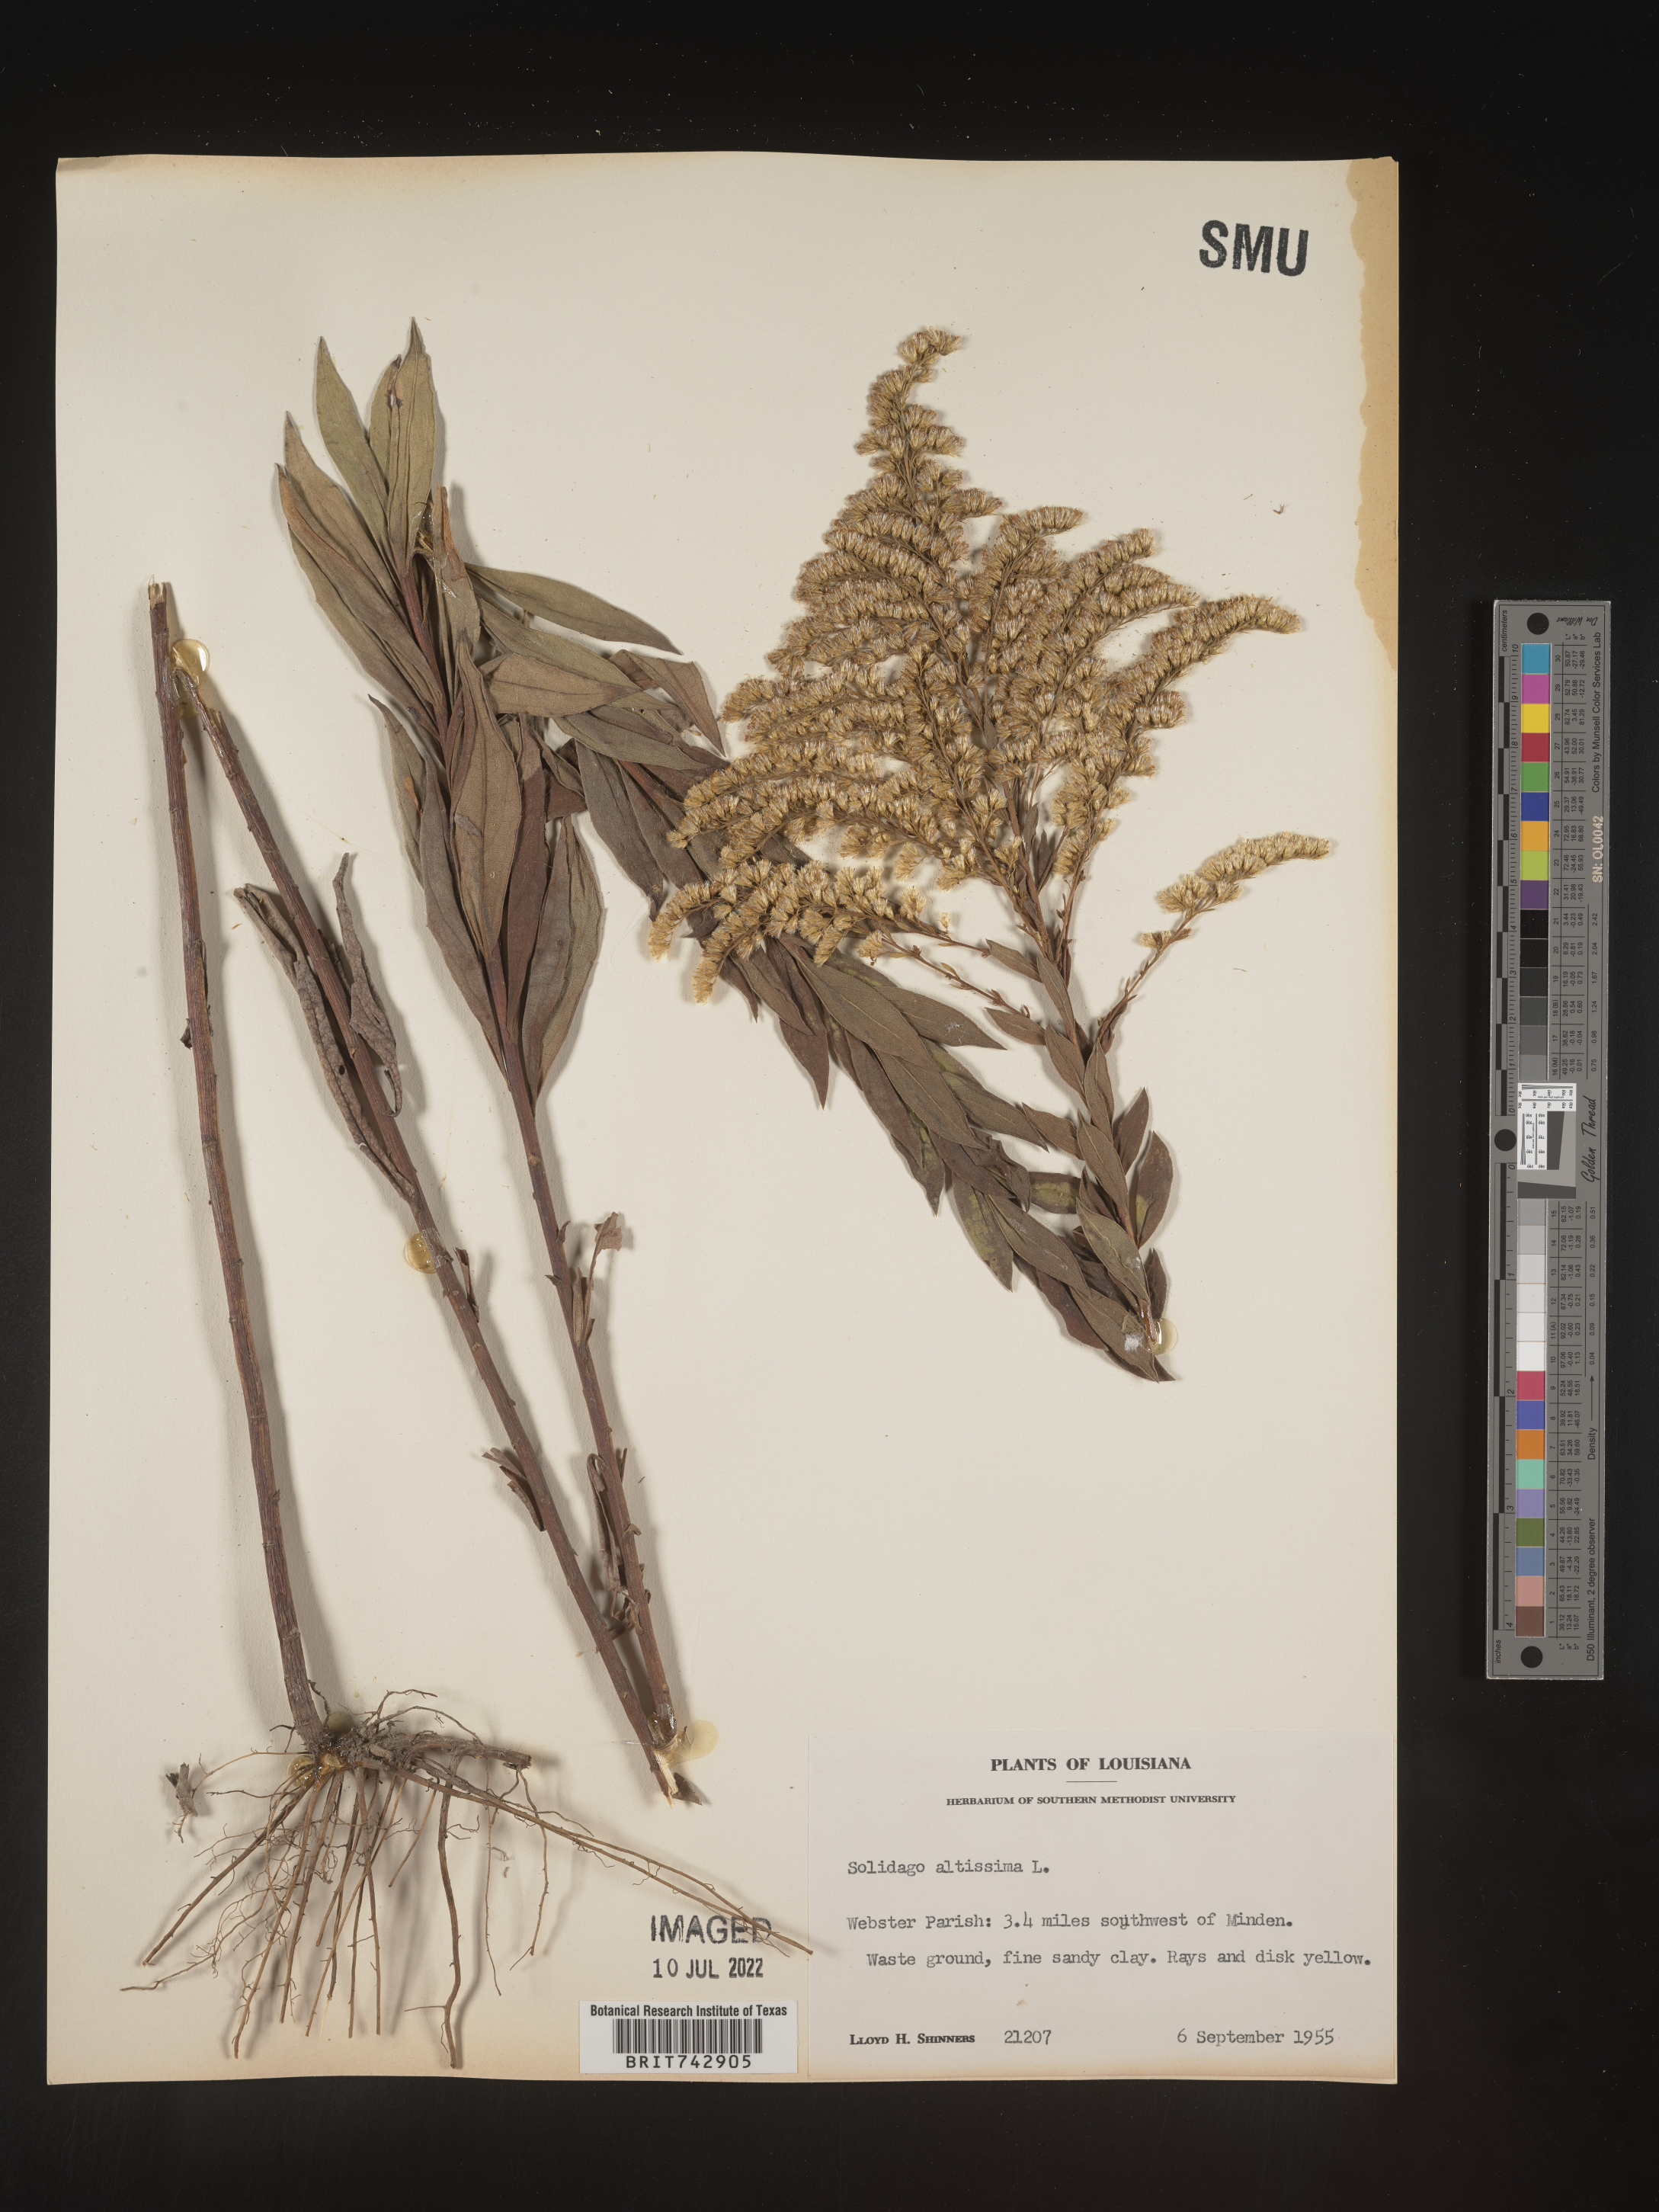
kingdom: Plantae
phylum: Tracheophyta
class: Magnoliopsida
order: Asterales
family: Asteraceae
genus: Solidago
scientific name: Solidago altissima
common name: Late goldenrod
